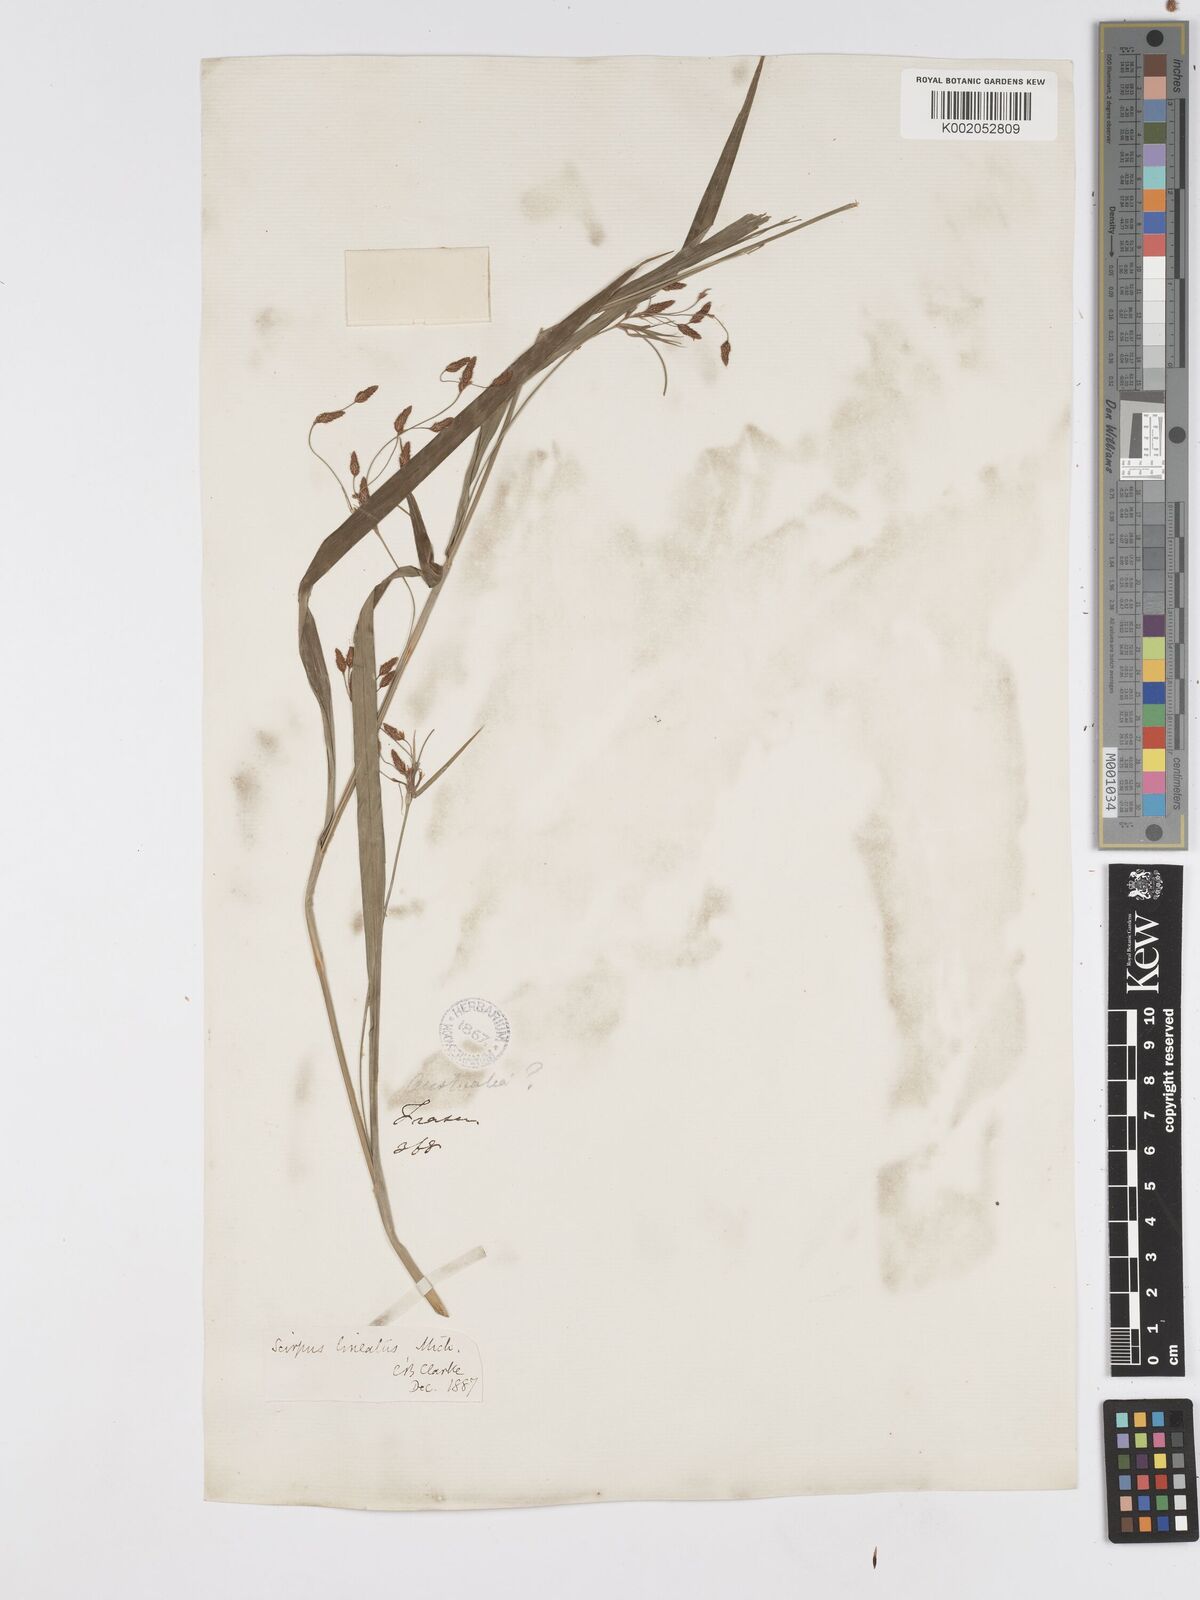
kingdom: Plantae
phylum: Tracheophyta
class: Liliopsida
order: Poales
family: Cyperaceae
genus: Scirpus
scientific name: Scirpus lineatus
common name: Drooping bulrush
